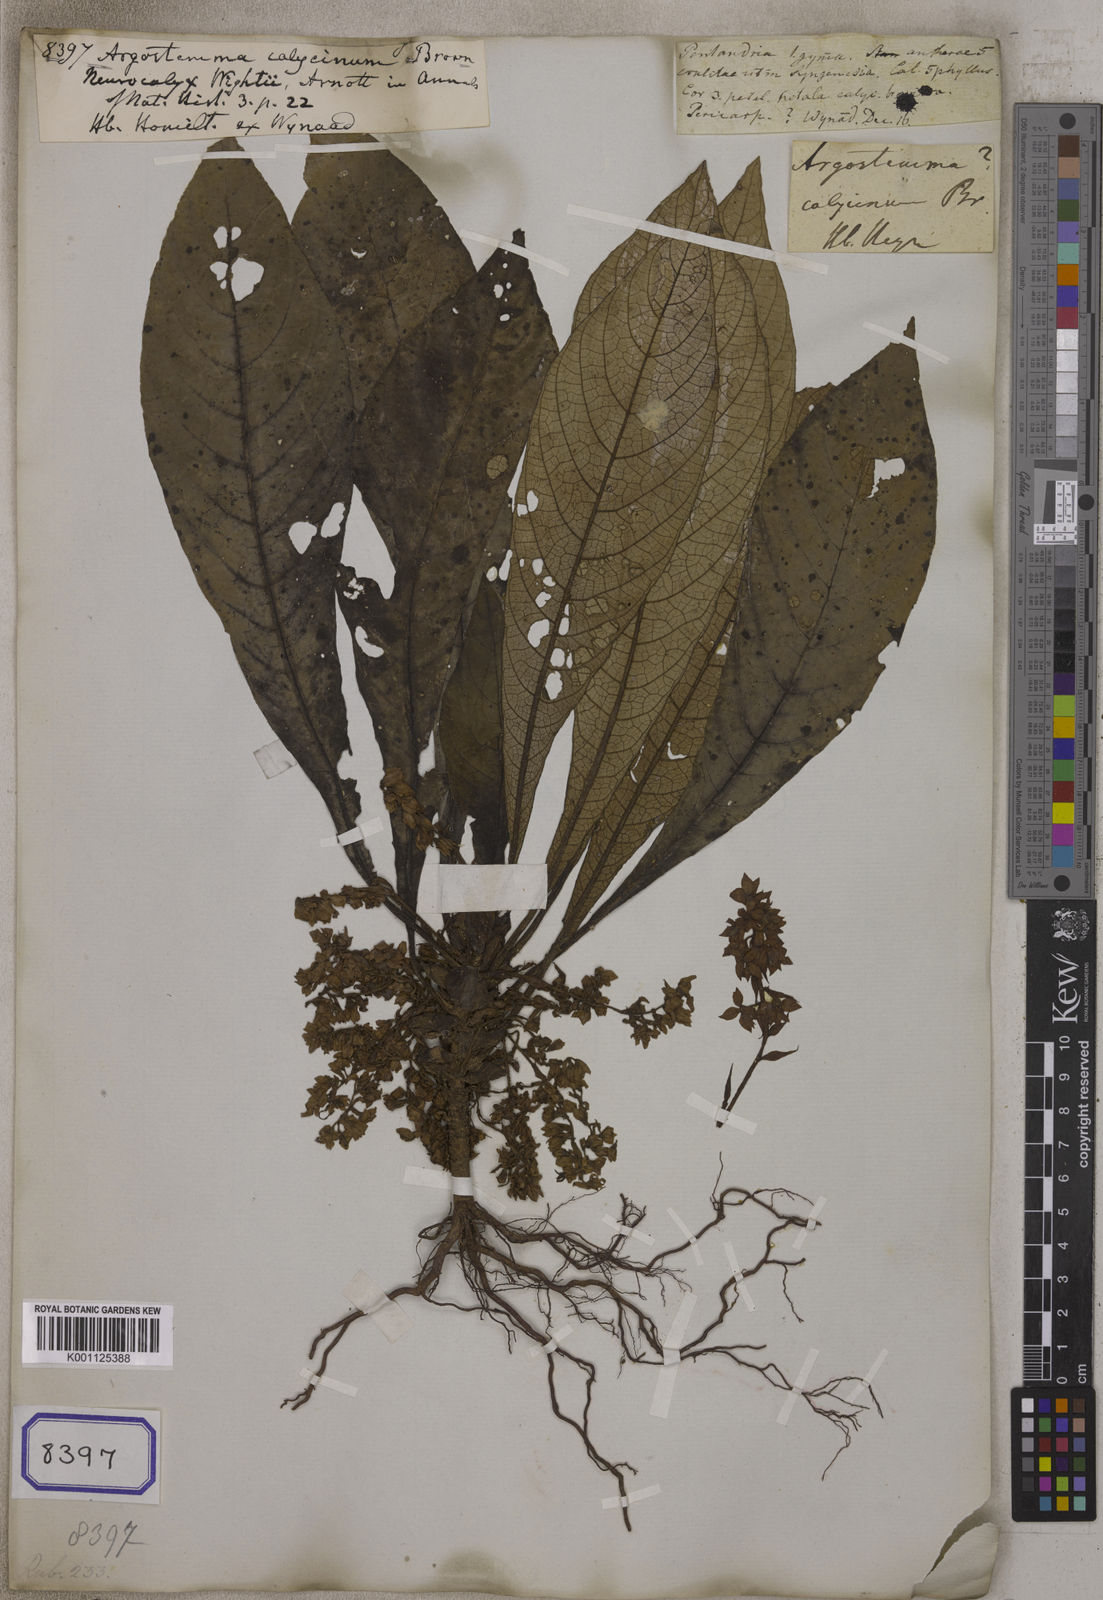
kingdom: Plantae
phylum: Tracheophyta
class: Magnoliopsida
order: Gentianales
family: Rubiaceae
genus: Neurocalyx
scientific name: Neurocalyx calycinus
